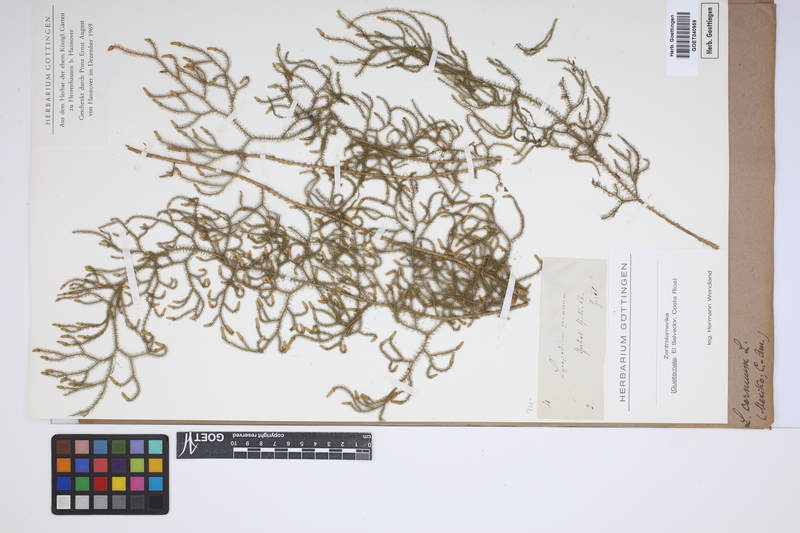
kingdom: Plantae
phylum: Tracheophyta
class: Lycopodiopsida
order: Lycopodiales
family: Lycopodiaceae
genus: Palhinhaea
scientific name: Palhinhaea cernua
